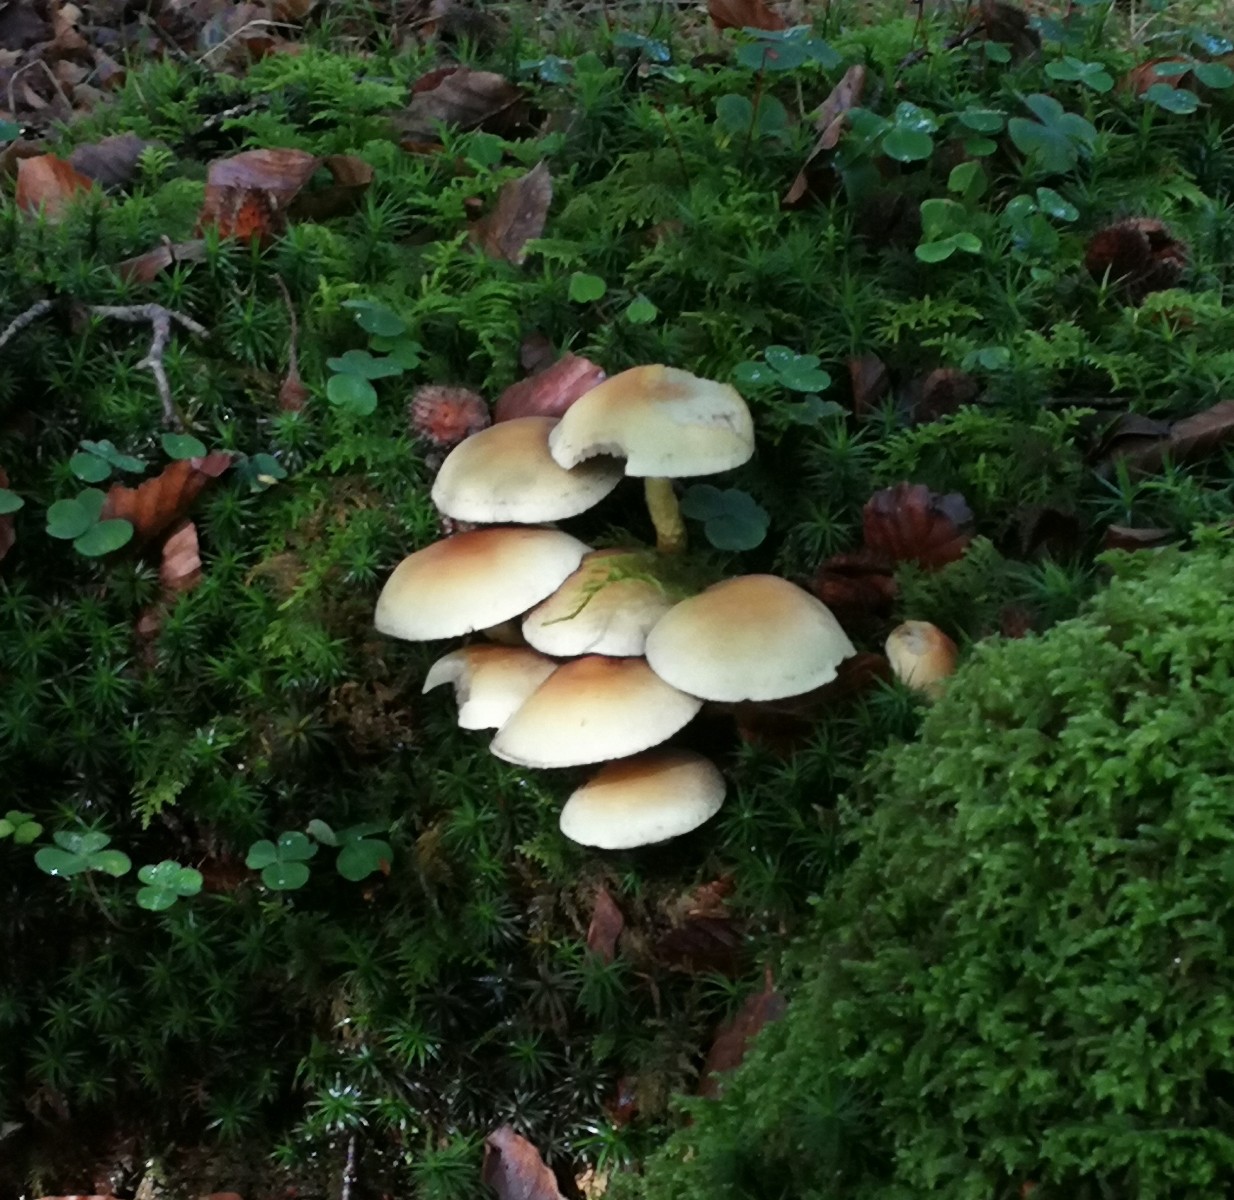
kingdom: Fungi
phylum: Basidiomycota
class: Agaricomycetes
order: Agaricales
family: Strophariaceae
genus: Hypholoma
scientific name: Hypholoma fasciculare
